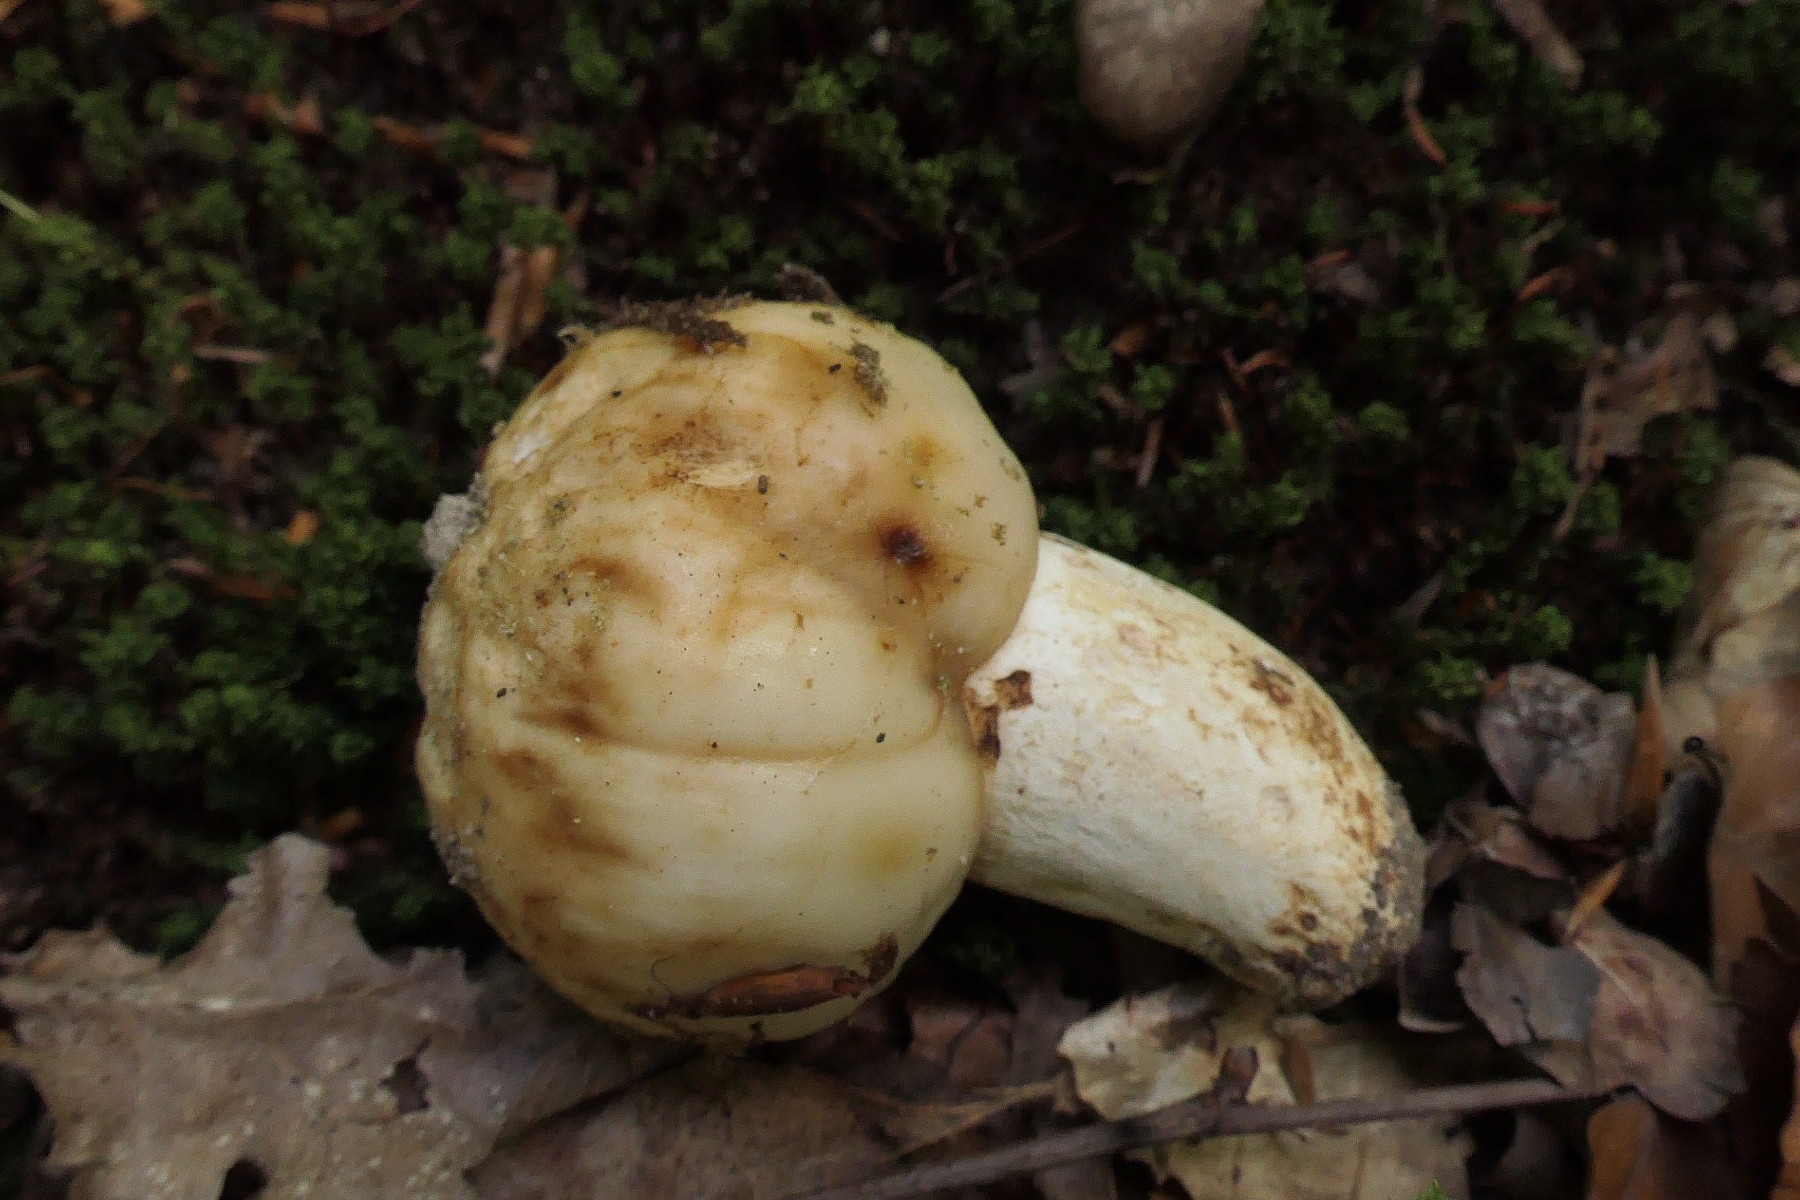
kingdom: Fungi
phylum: Basidiomycota
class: Agaricomycetes
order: Russulales
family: Russulaceae
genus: Russula
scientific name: Russula foetens
